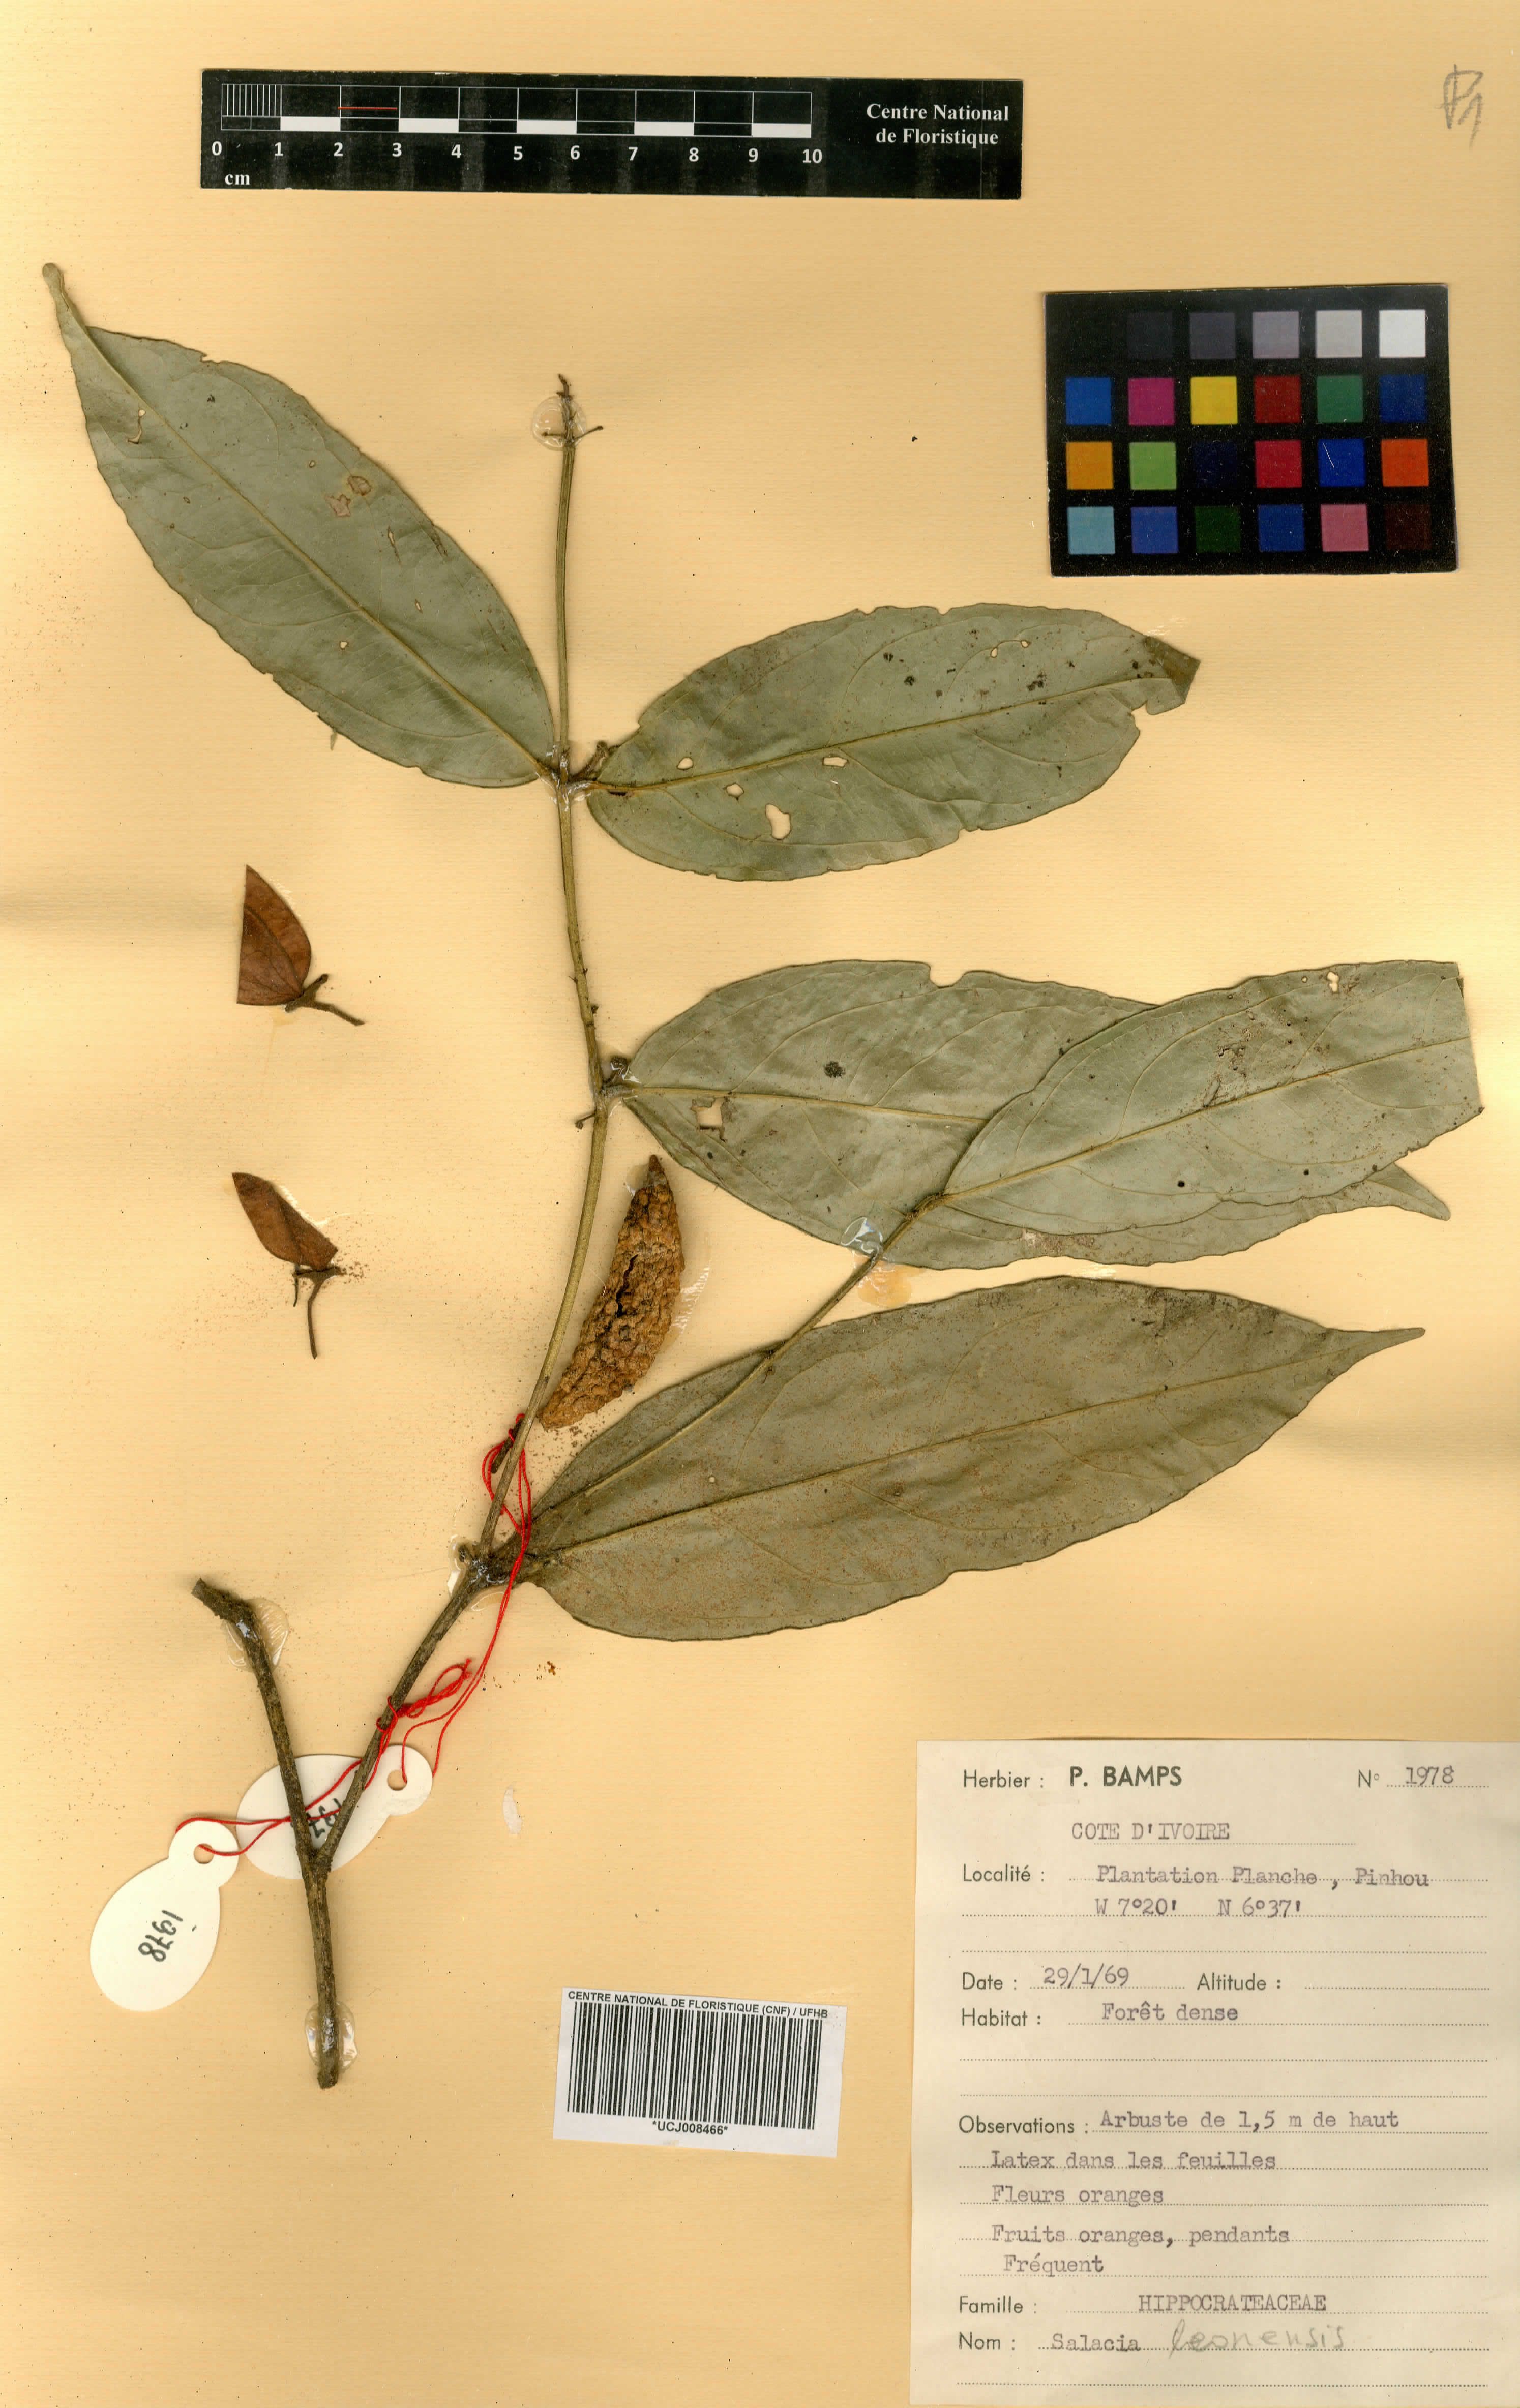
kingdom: Plantae
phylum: Tracheophyta
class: Magnoliopsida
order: Celastrales
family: Celastraceae
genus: Salacia
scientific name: Salacia lehmbachii
